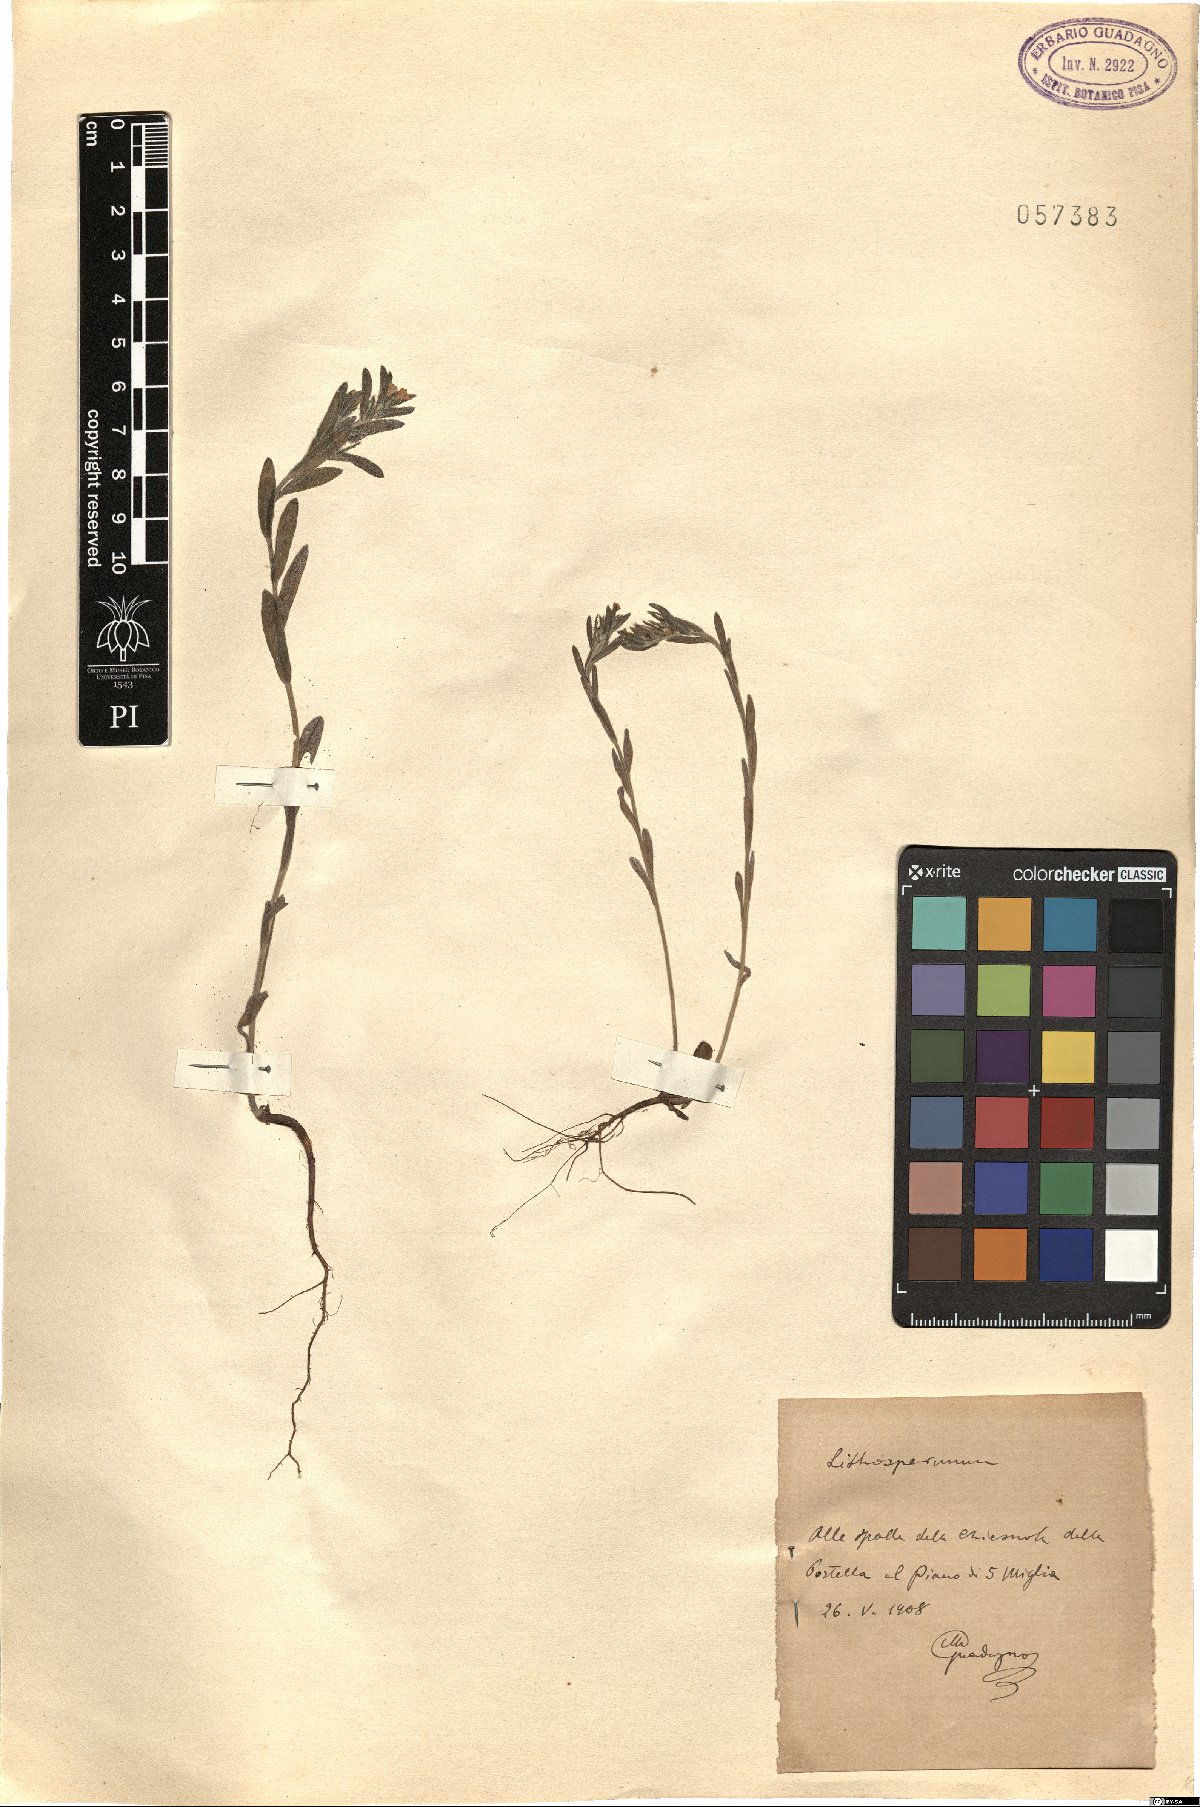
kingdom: Plantae
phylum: Tracheophyta
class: Magnoliopsida
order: Boraginales
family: Boraginaceae
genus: Lithospermum
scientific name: Lithospermum
